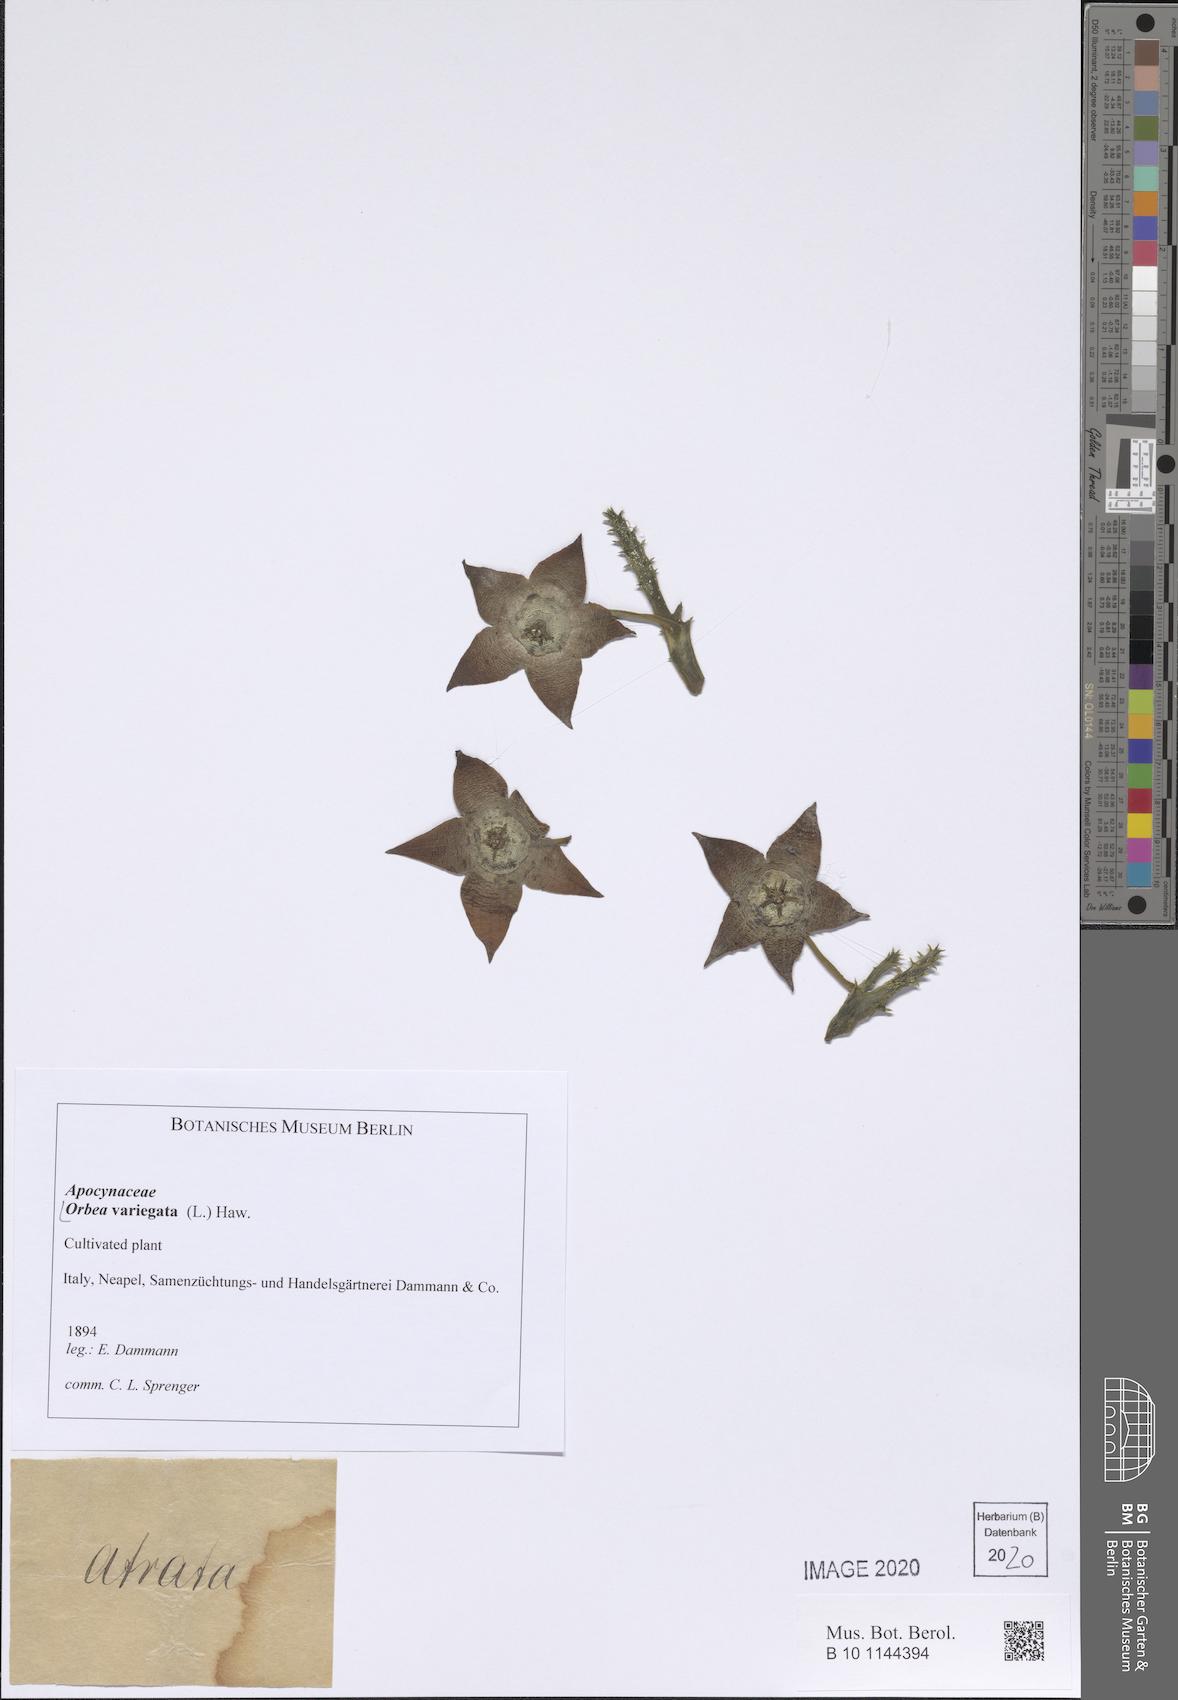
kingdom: Plantae
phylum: Tracheophyta
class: Magnoliopsida
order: Gentianales
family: Apocynaceae
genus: Ceropegia
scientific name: Ceropegia mixta
